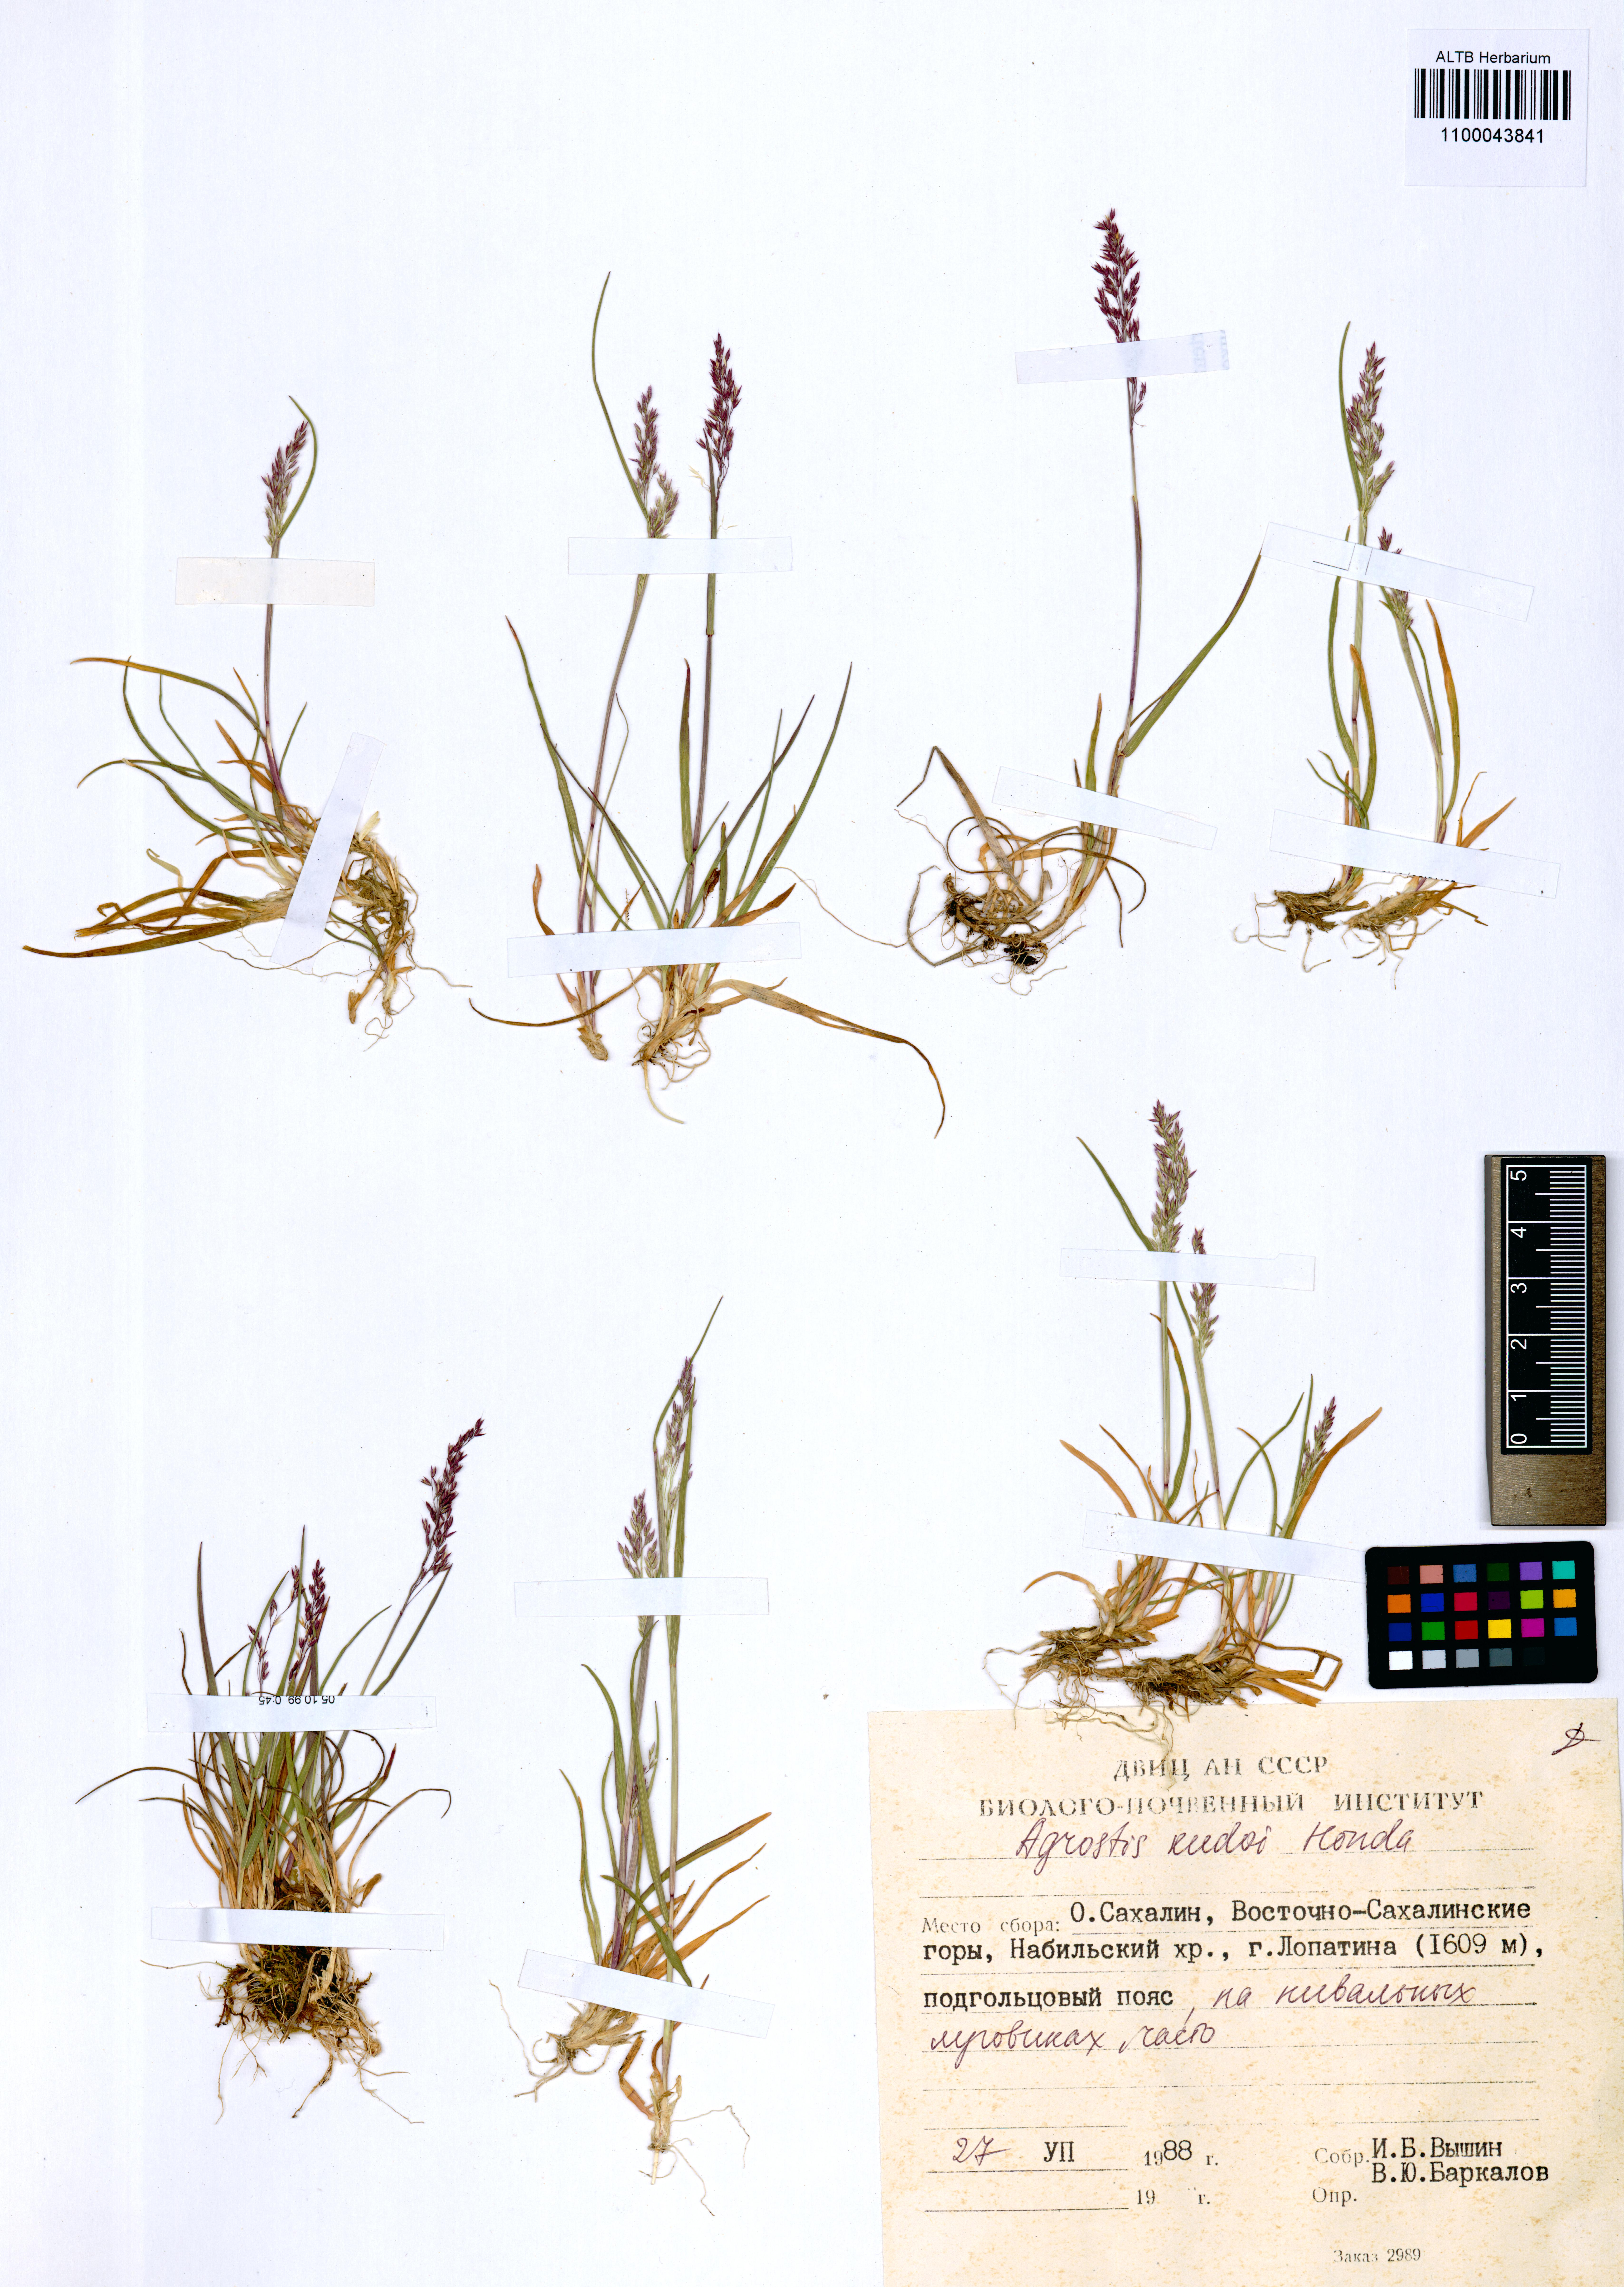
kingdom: Plantae
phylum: Tracheophyta
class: Liliopsida
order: Poales
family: Poaceae
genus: Agrostis
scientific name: Agrostis vinealis
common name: Brown bent
